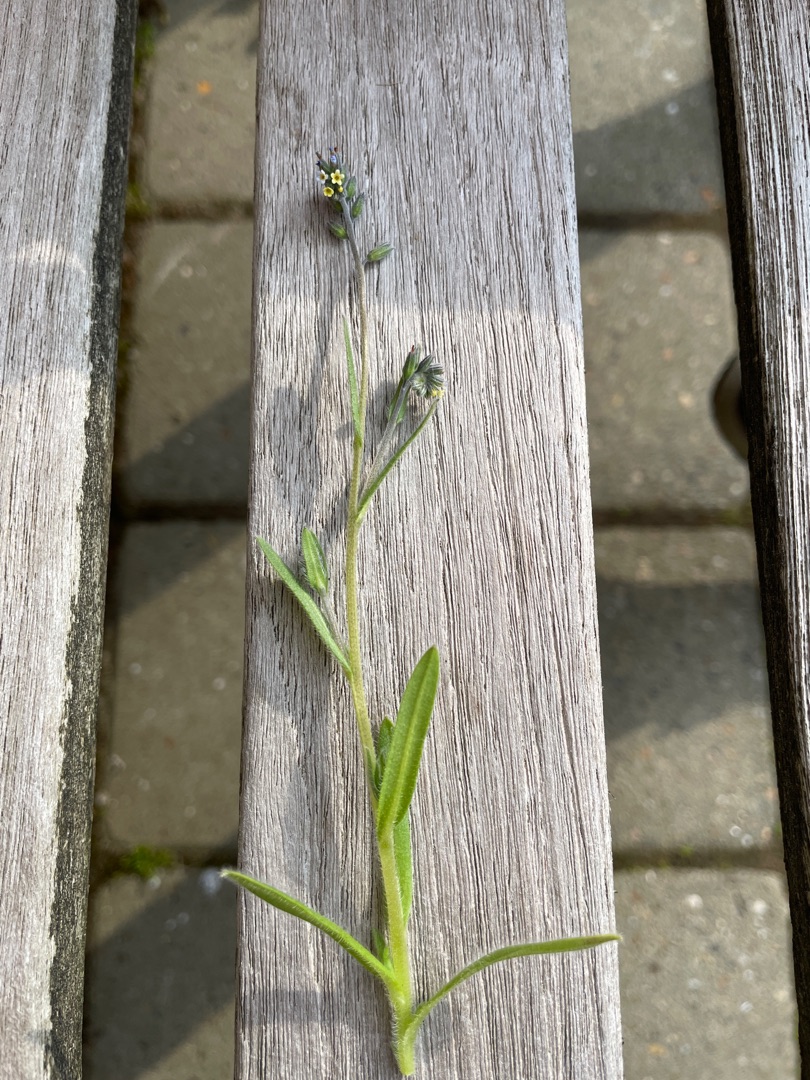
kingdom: Plantae
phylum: Tracheophyta
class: Magnoliopsida
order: Boraginales
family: Boraginaceae
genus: Myosotis
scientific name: Myosotis discolor
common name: Forskelligfarvet forglemmigej
